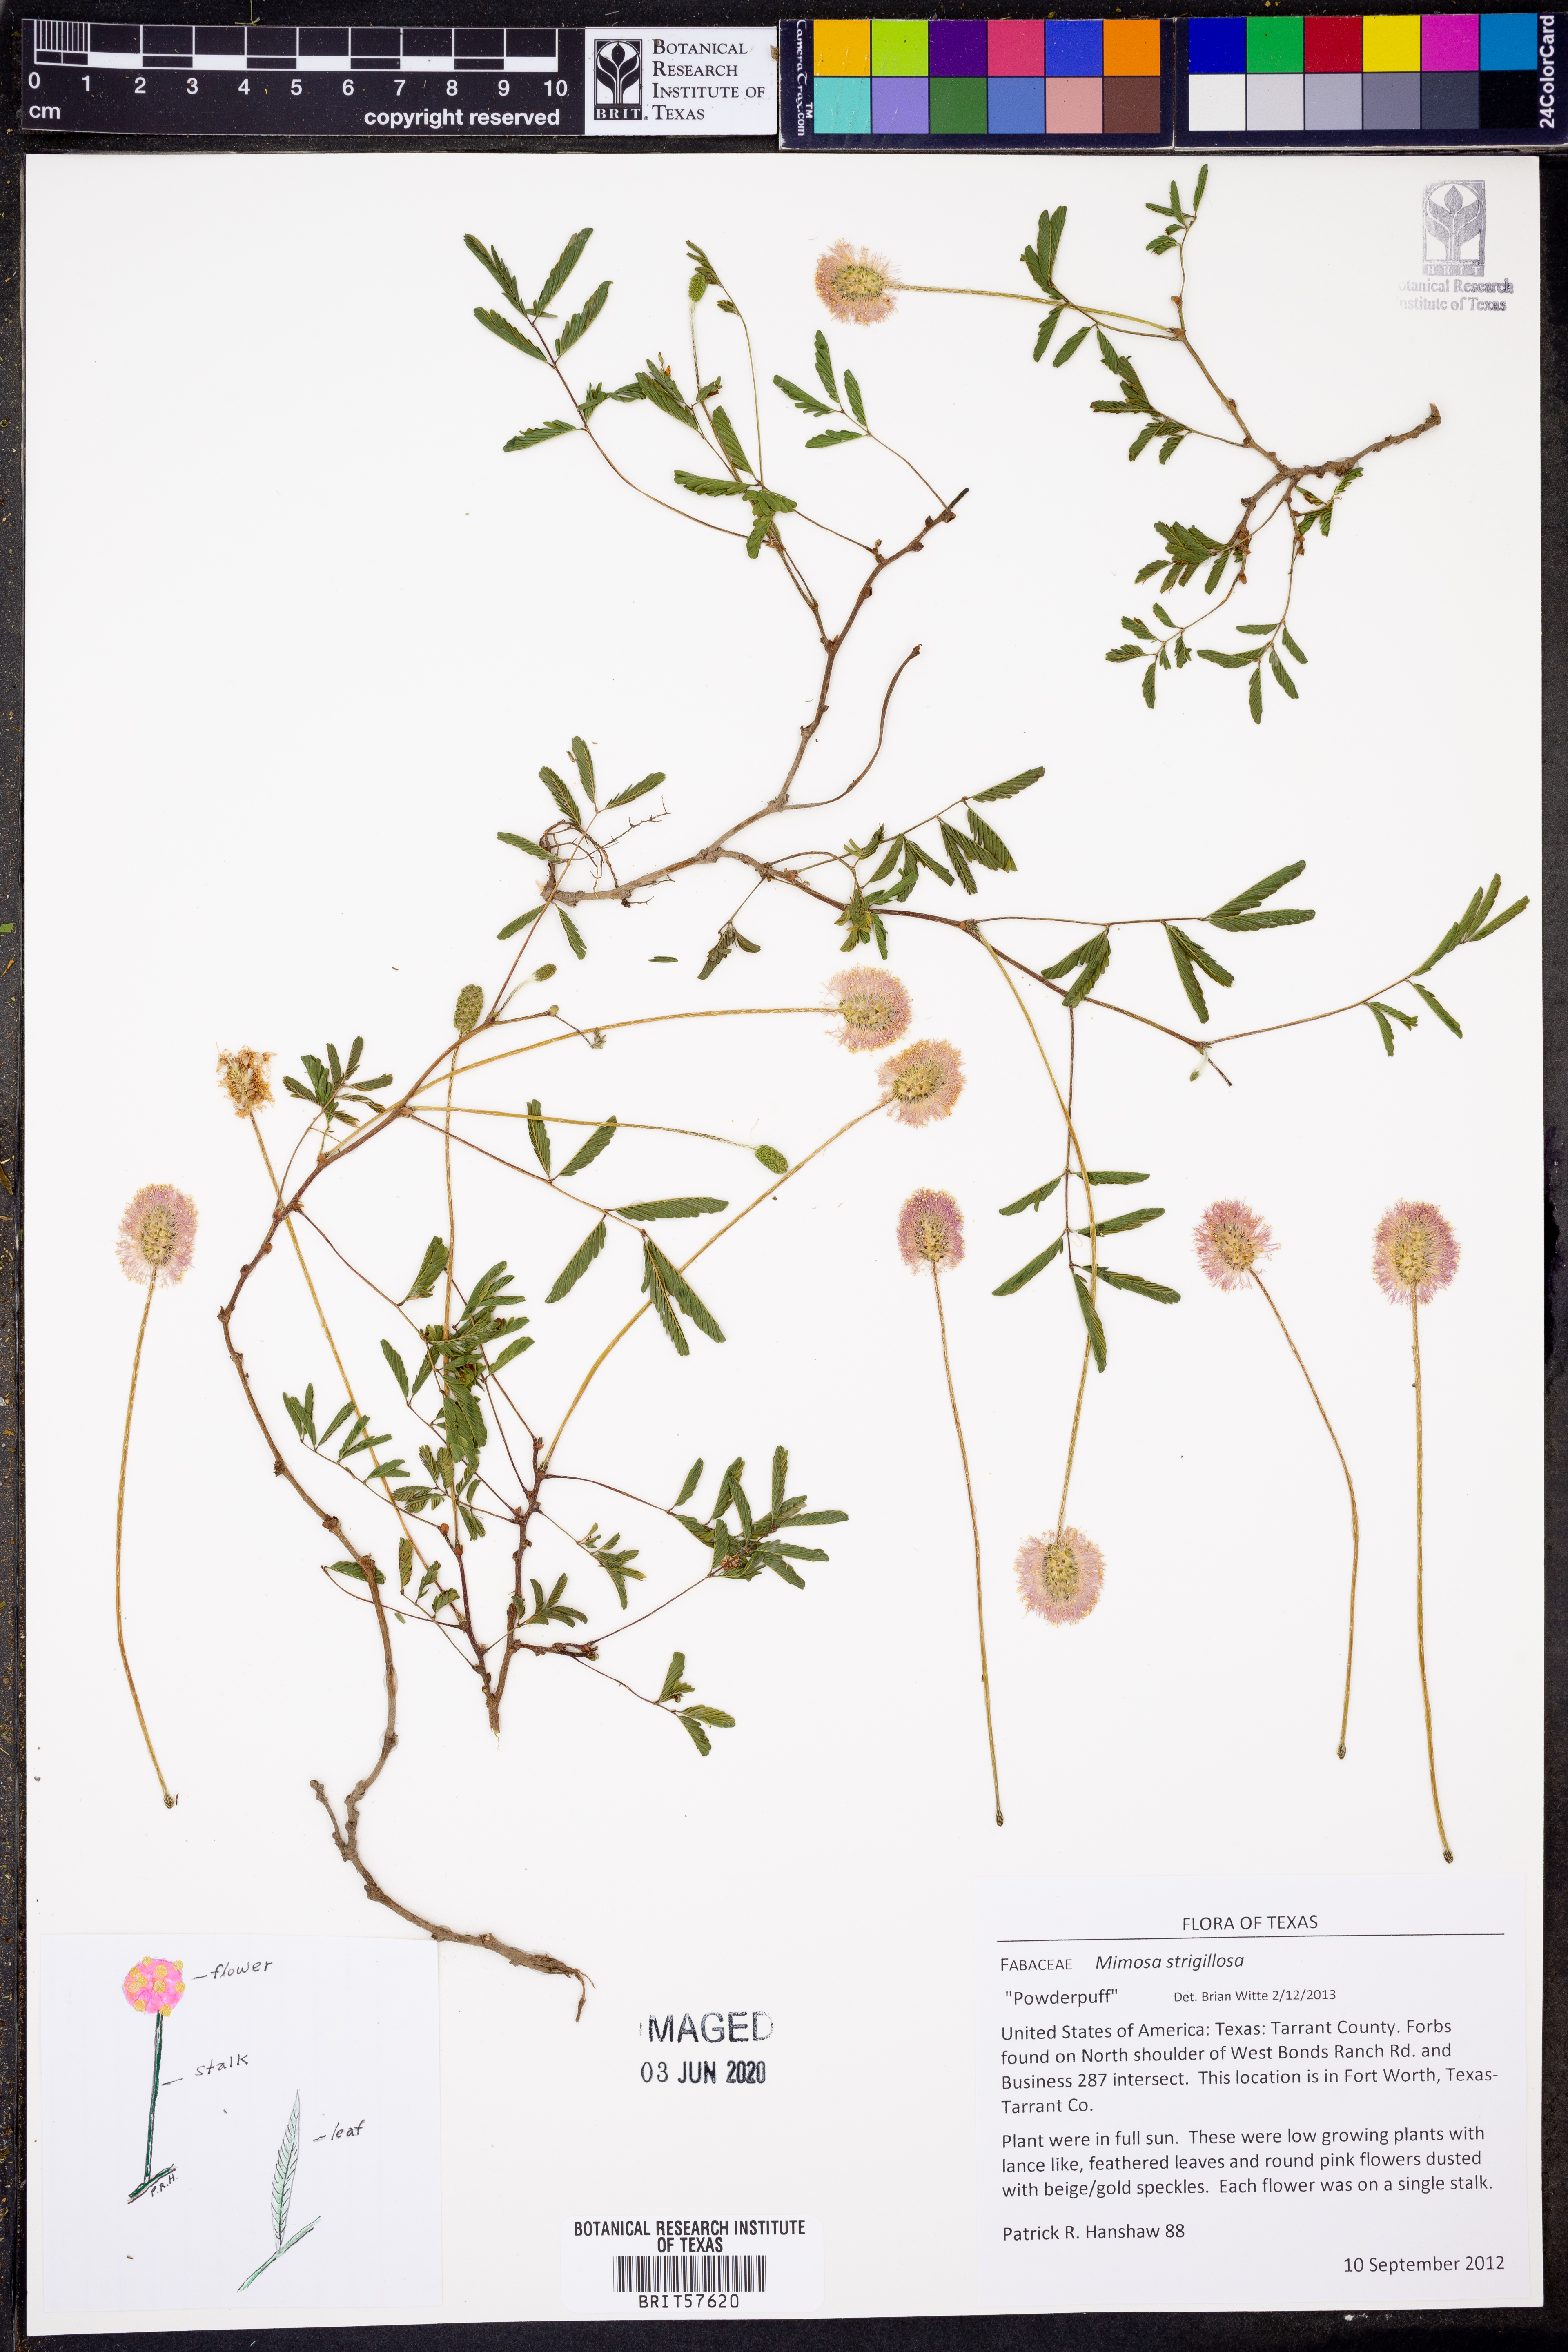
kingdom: Plantae
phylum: Tracheophyta
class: Magnoliopsida
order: Fabales
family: Fabaceae
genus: Mimosa
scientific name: Mimosa strigillosa
